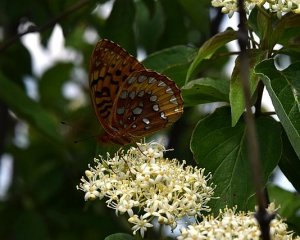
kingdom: Animalia
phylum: Arthropoda
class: Insecta
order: Lepidoptera
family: Nymphalidae
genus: Speyeria
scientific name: Speyeria cybele
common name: Great Spangled Fritillary
